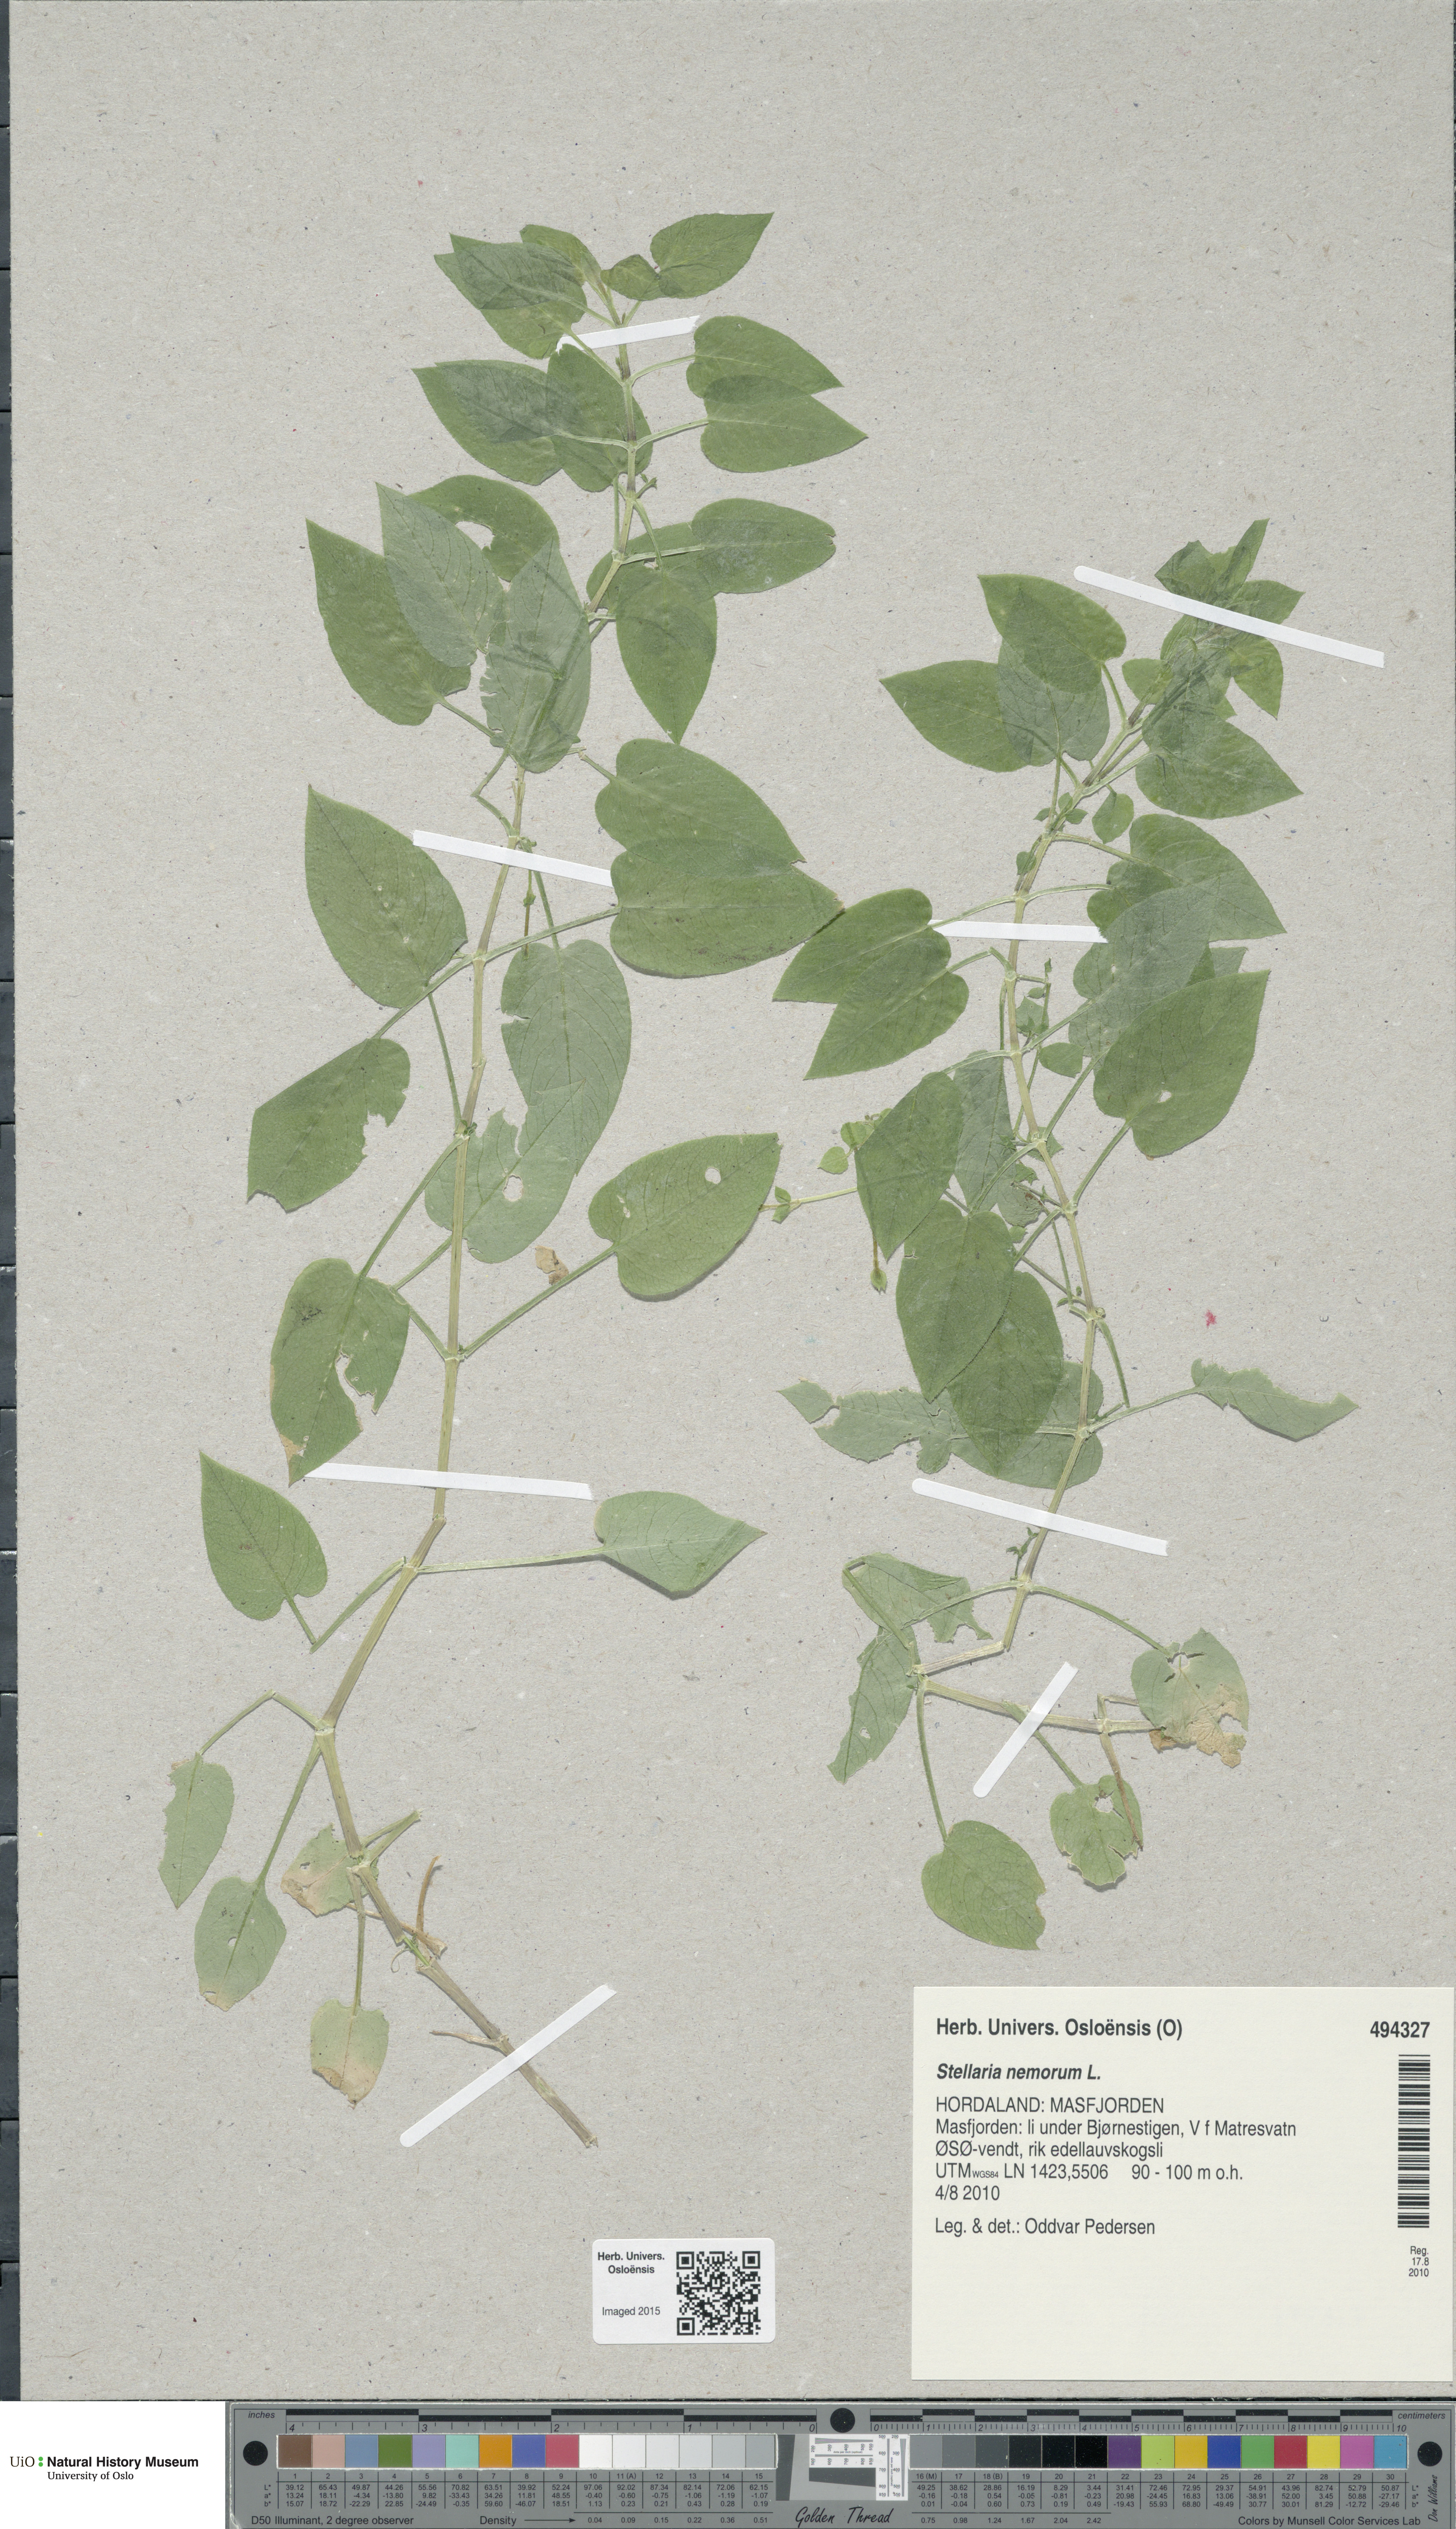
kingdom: Plantae
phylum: Tracheophyta
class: Magnoliopsida
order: Caryophyllales
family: Caryophyllaceae
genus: Stellaria
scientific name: Stellaria nemorum
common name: Wood stitchwort
